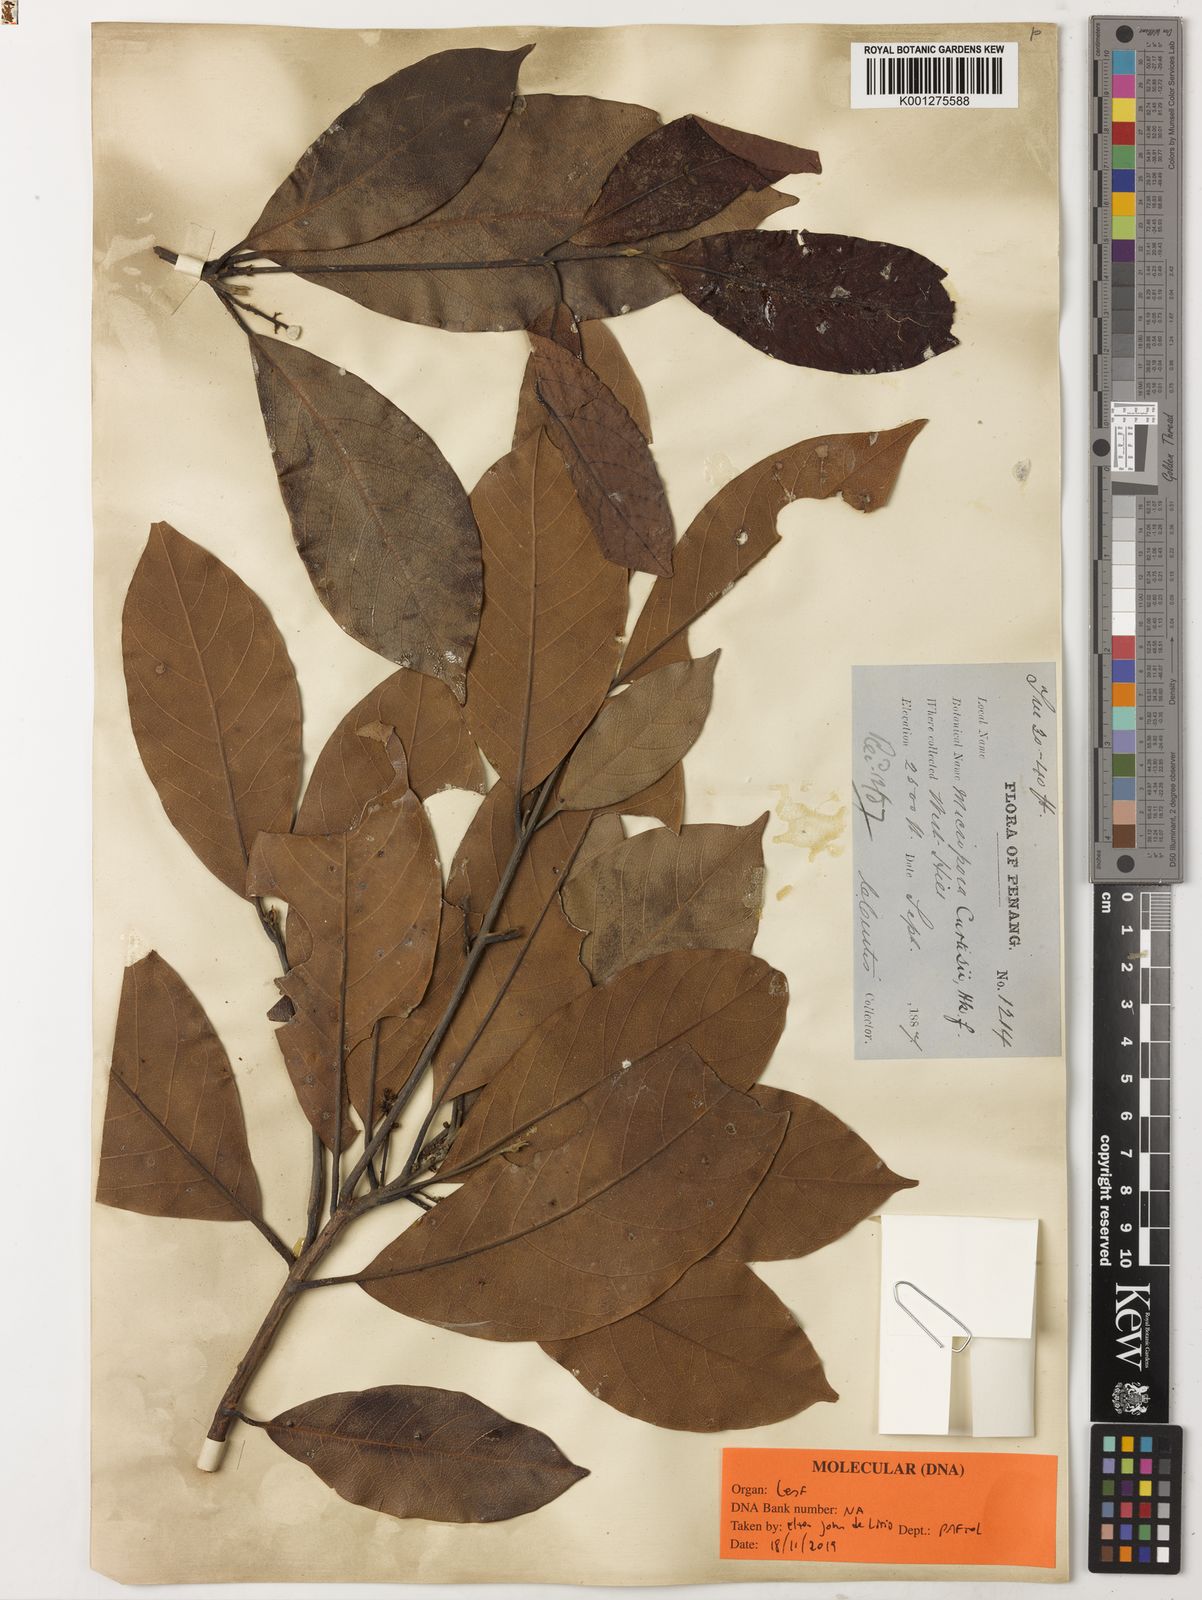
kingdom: Plantae
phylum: Tracheophyta
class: Magnoliopsida
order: Laurales
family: Lauraceae
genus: Hexapora
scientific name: Hexapora curtisii
